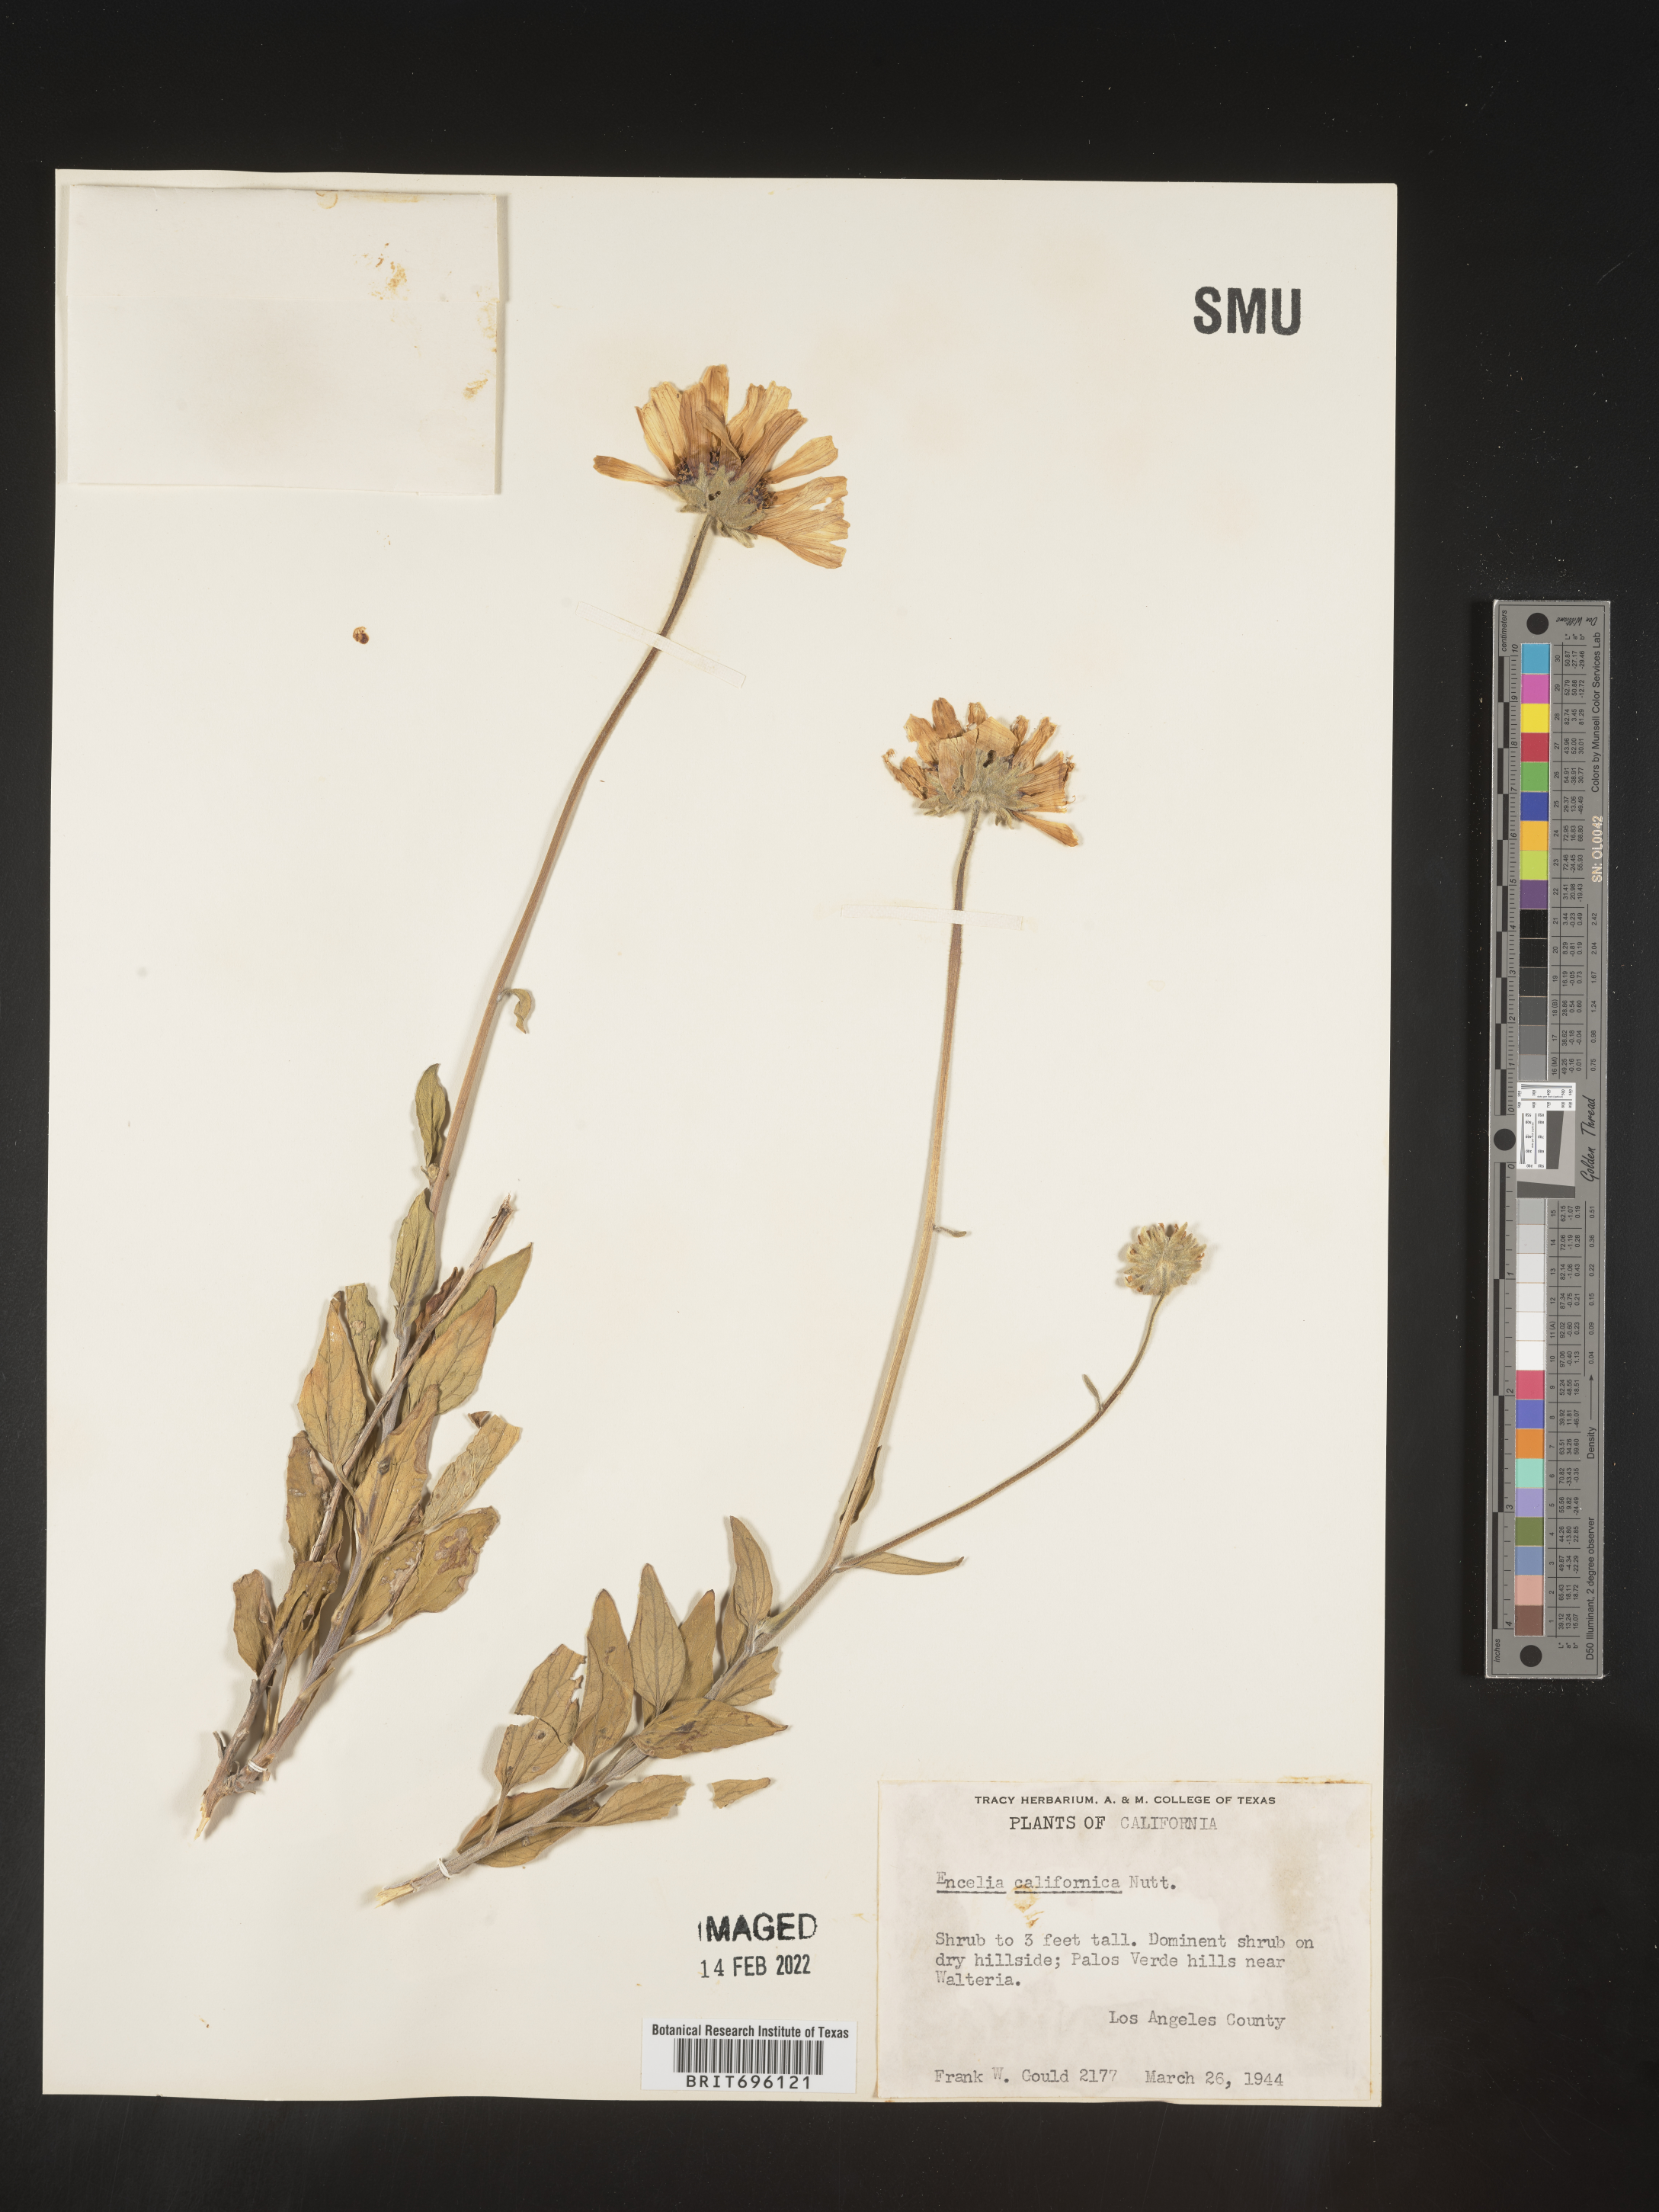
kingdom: Plantae
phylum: Tracheophyta
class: Magnoliopsida
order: Asterales
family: Asteraceae
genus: Encelia
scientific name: Encelia californica
